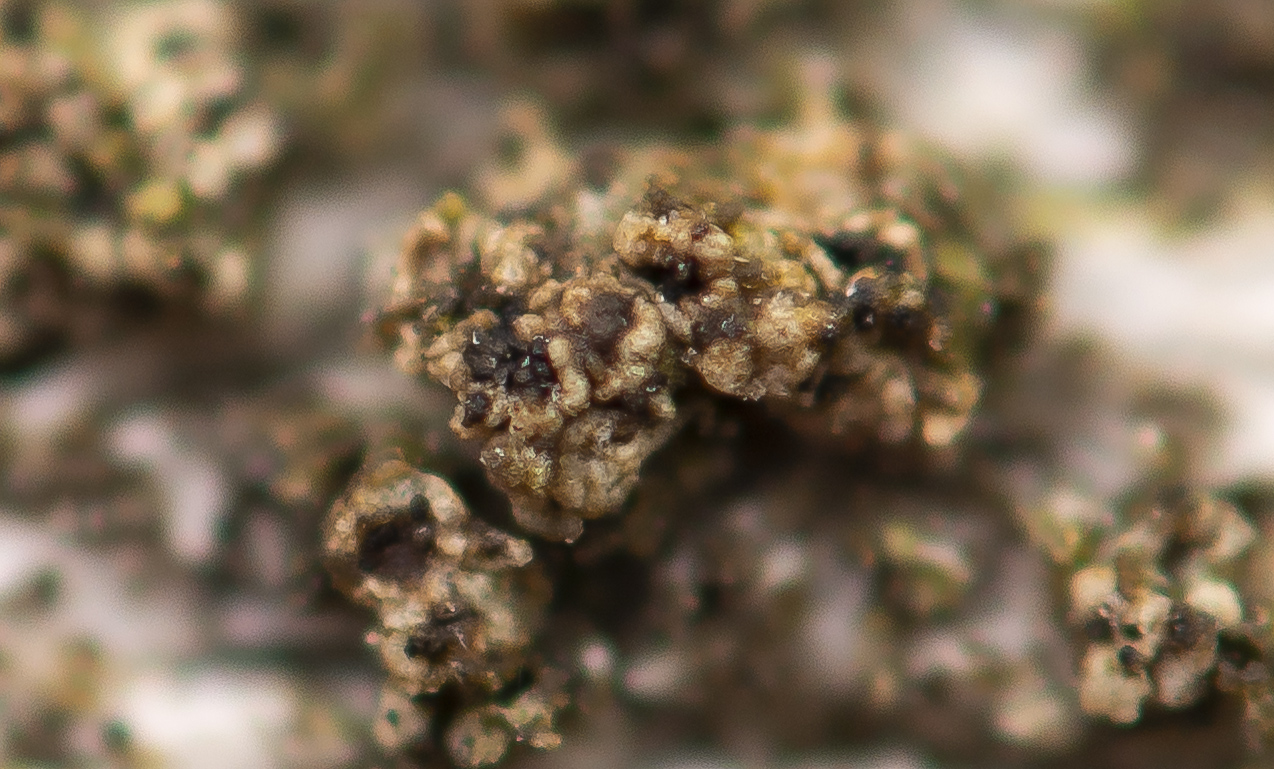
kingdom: Fungi
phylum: Ascomycota
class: Eurotiomycetes
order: Chaetothyriales
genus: Lichenodiplis
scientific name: Lichenodiplis lecanorae
